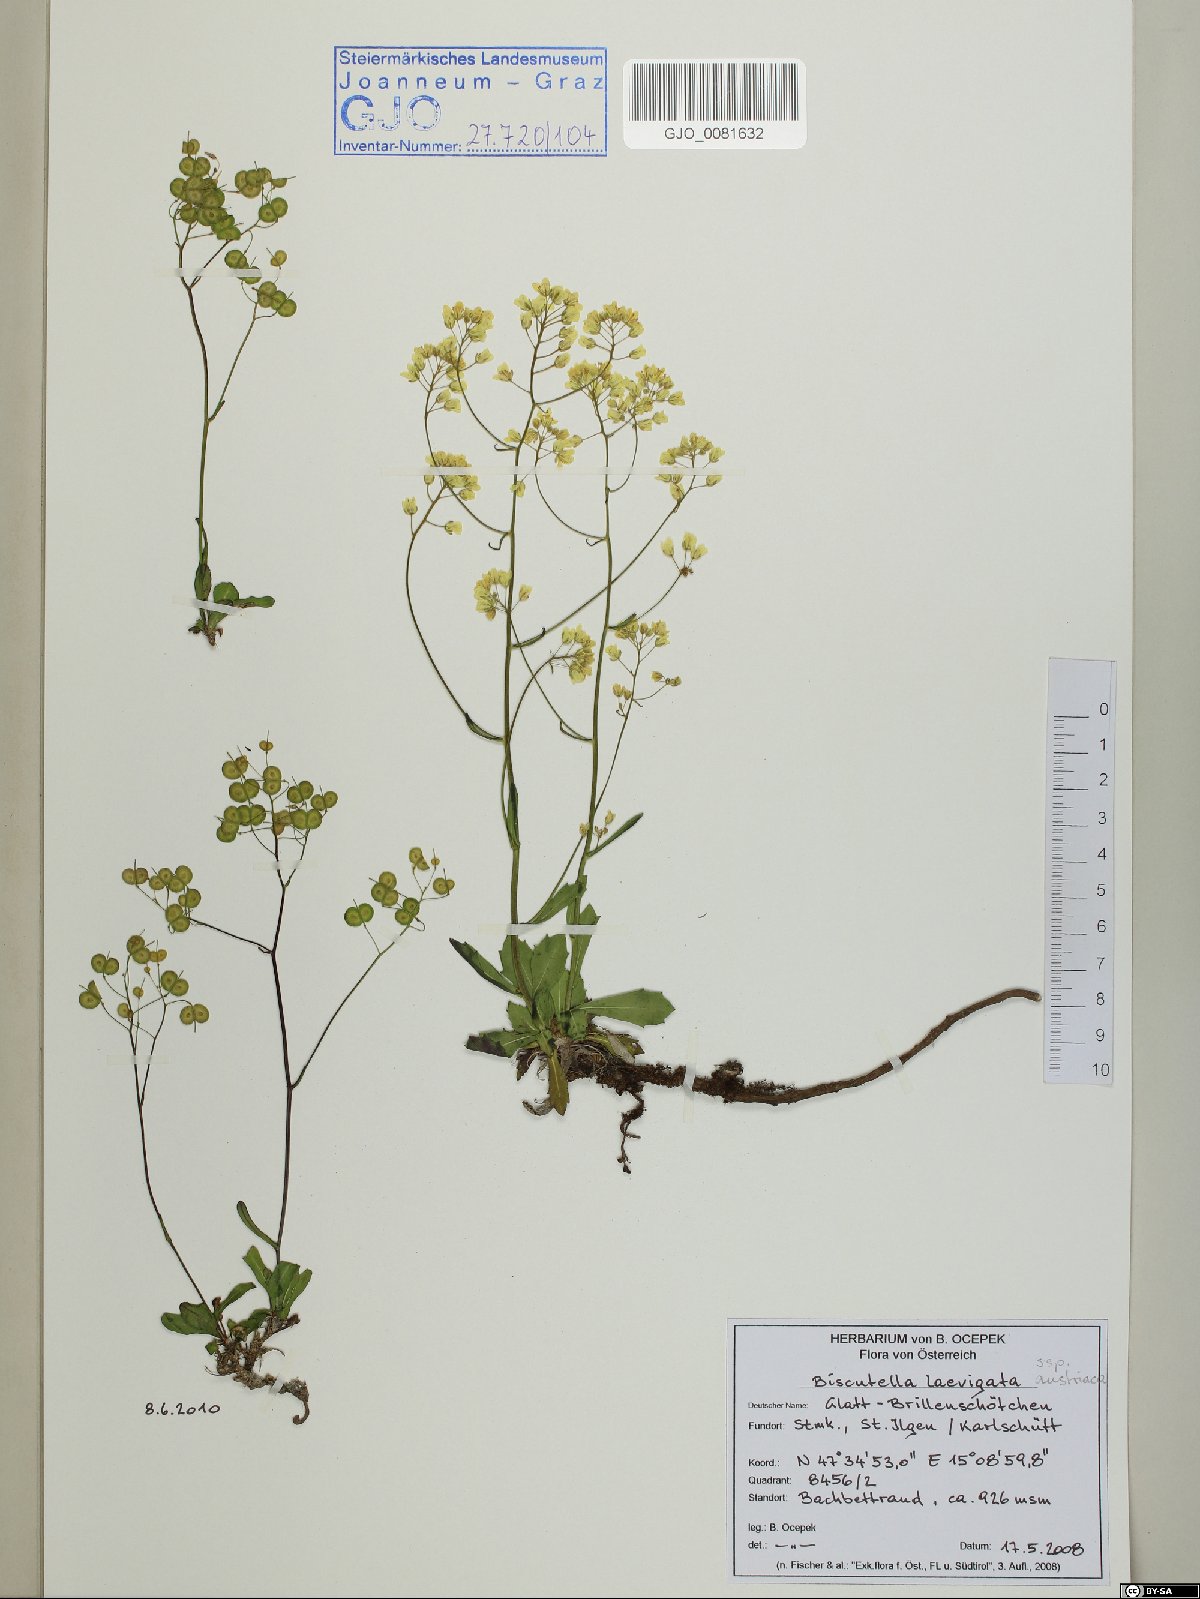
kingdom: Plantae
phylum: Tracheophyta
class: Magnoliopsida
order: Brassicales
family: Brassicaceae
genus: Biscutella
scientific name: Biscutella laevigata
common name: Buckler mustard
